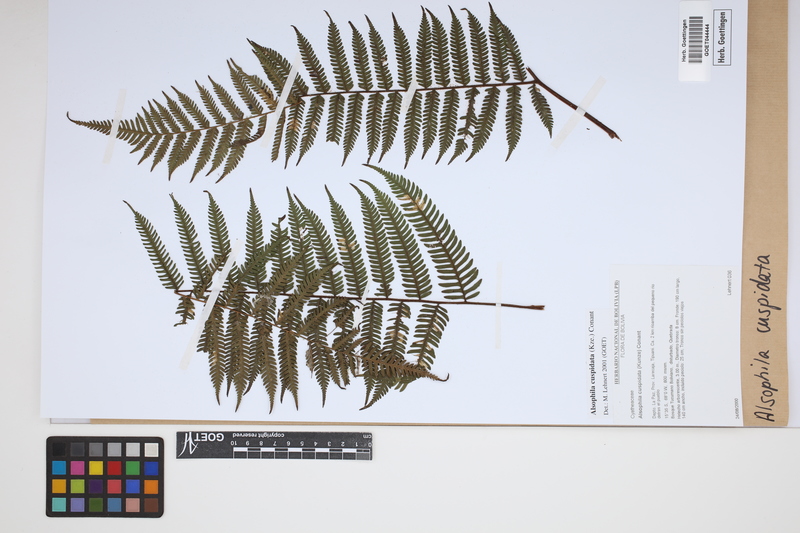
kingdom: Plantae
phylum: Tracheophyta
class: Polypodiopsida
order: Cyatheales
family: Cyatheaceae
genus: Alsophila
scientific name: Alsophila cuspidata
